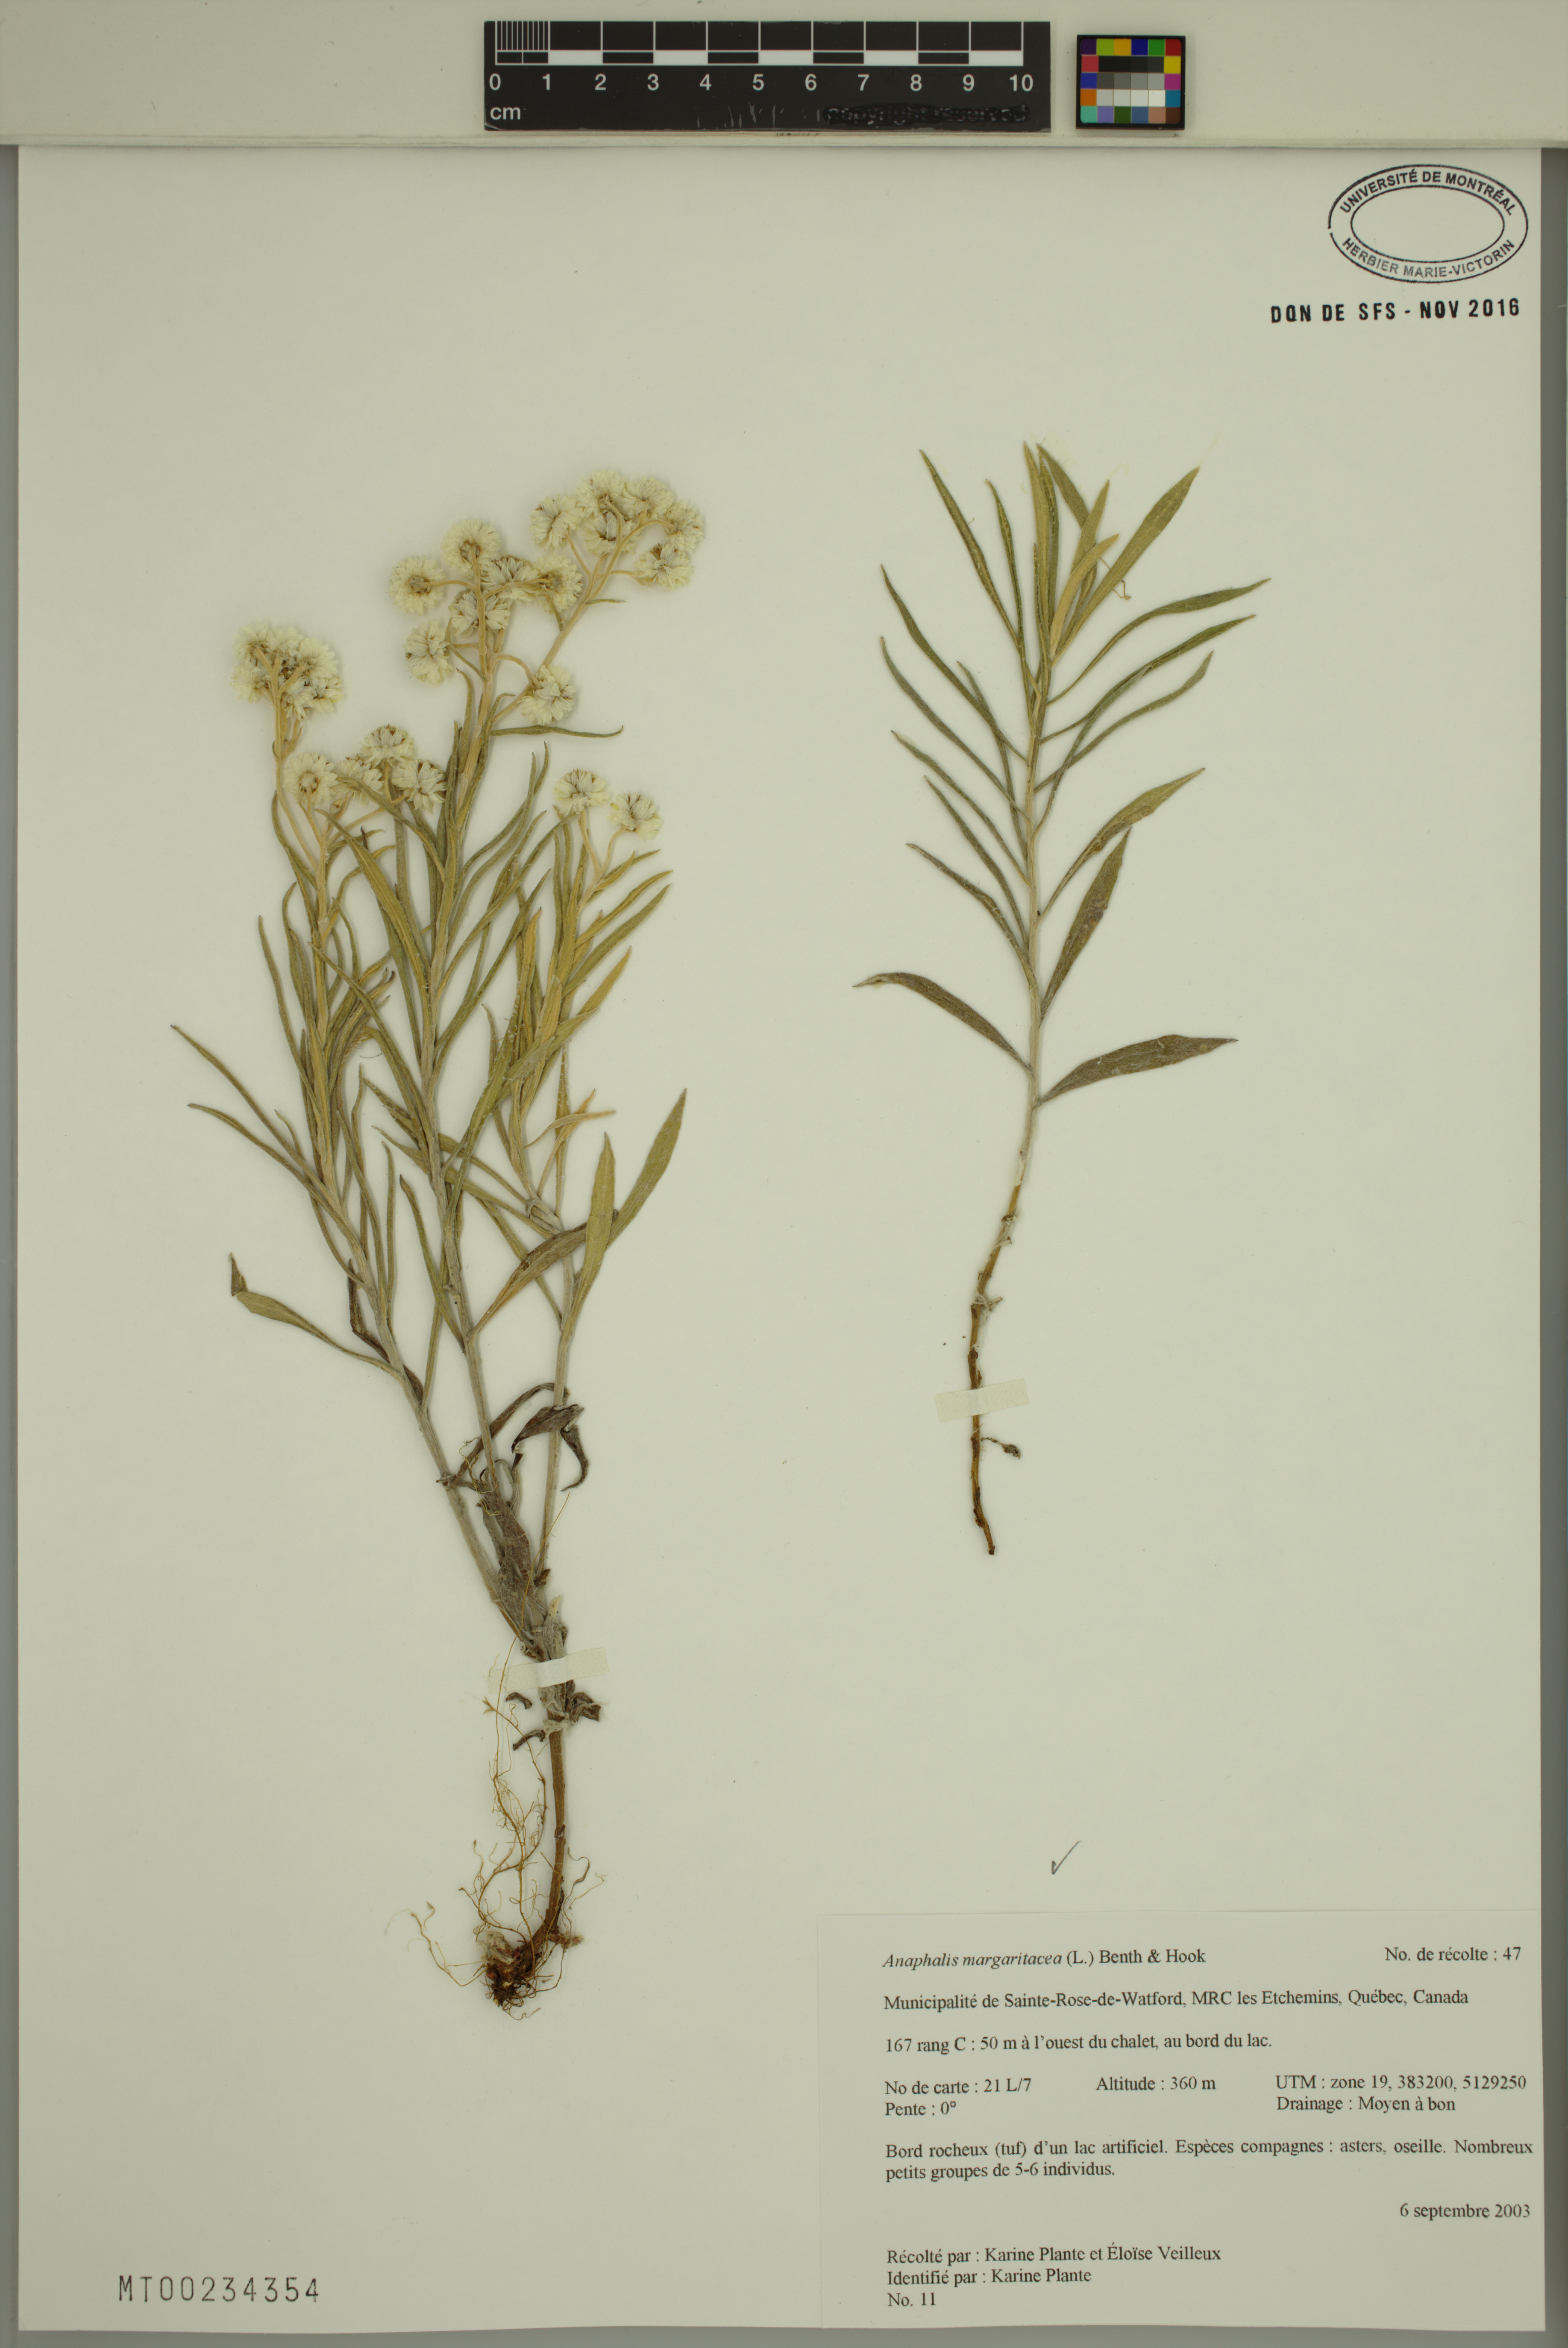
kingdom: Plantae
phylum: Tracheophyta
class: Magnoliopsida
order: Asterales
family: Asteraceae
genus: Anaphalis
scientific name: Anaphalis margaritacea
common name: Pearly everlasting
